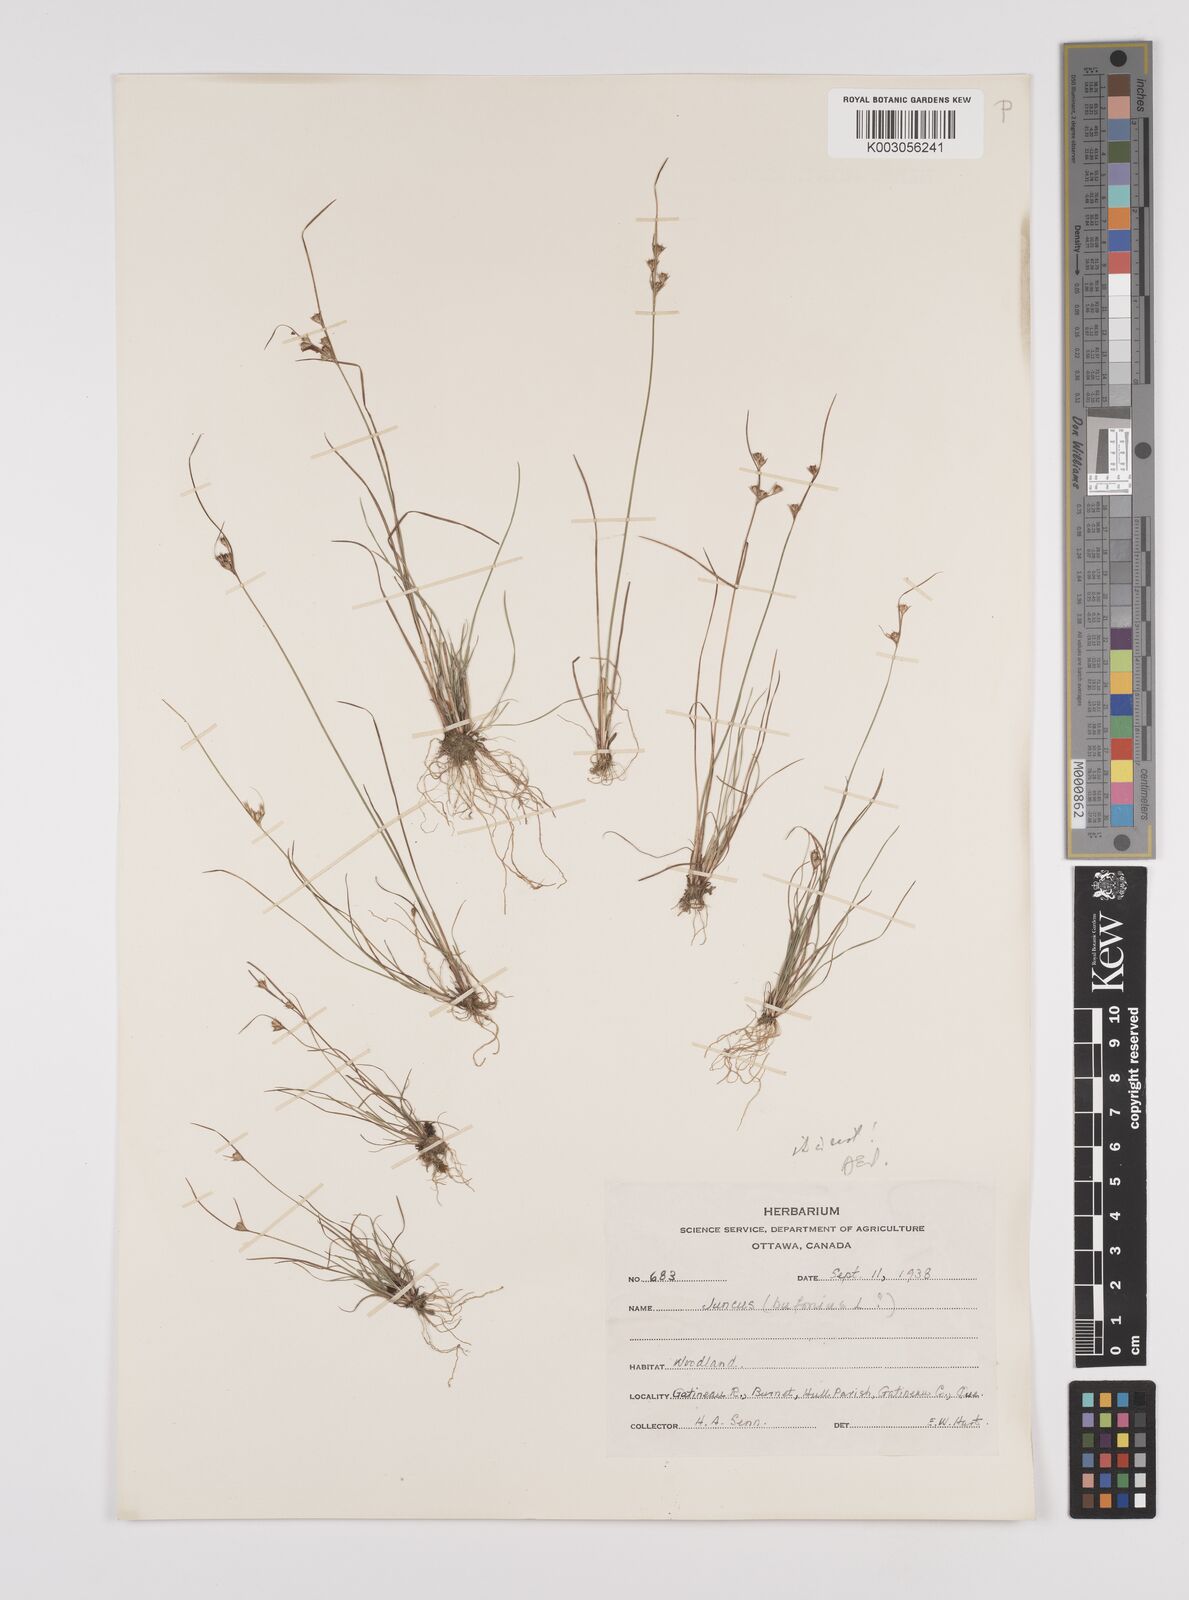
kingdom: Plantae
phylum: Tracheophyta
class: Liliopsida
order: Poales
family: Juncaceae
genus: Juncus
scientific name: Juncus bufonius
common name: Toad rush
